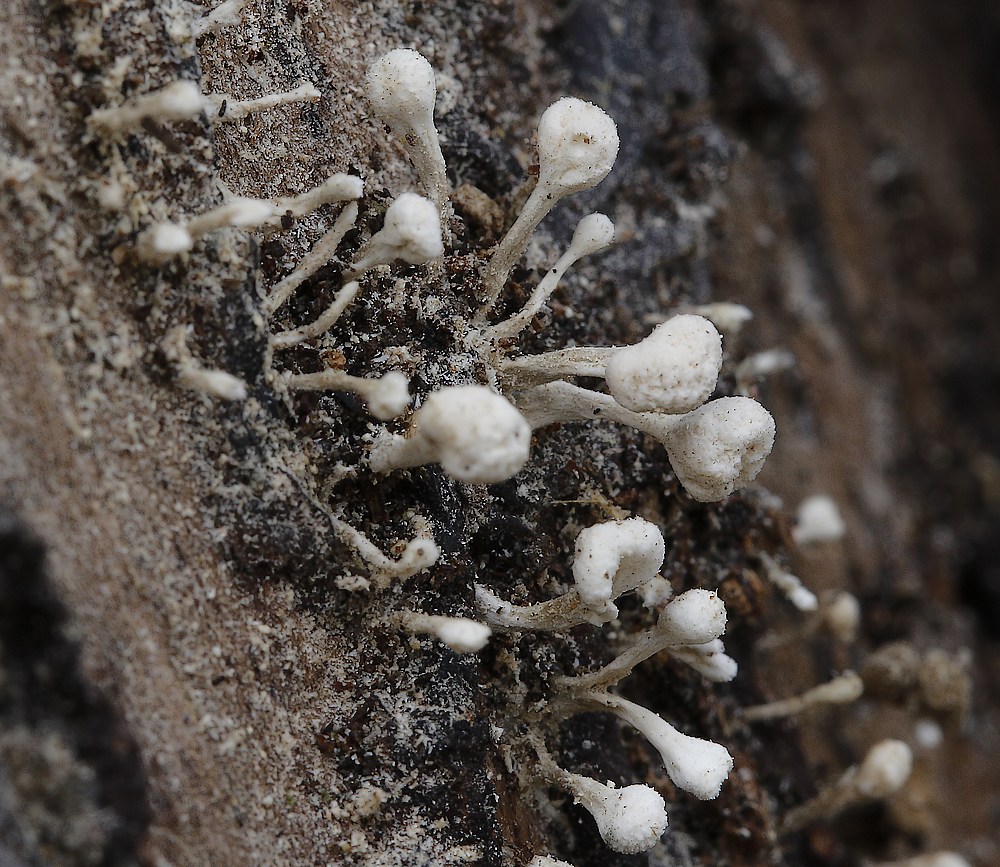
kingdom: Fungi
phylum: Basidiomycota
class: Atractiellomycetes
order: Atractiellales
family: Phleogenaceae
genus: Phleogena
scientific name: Phleogena faginea
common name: pudderkølle
